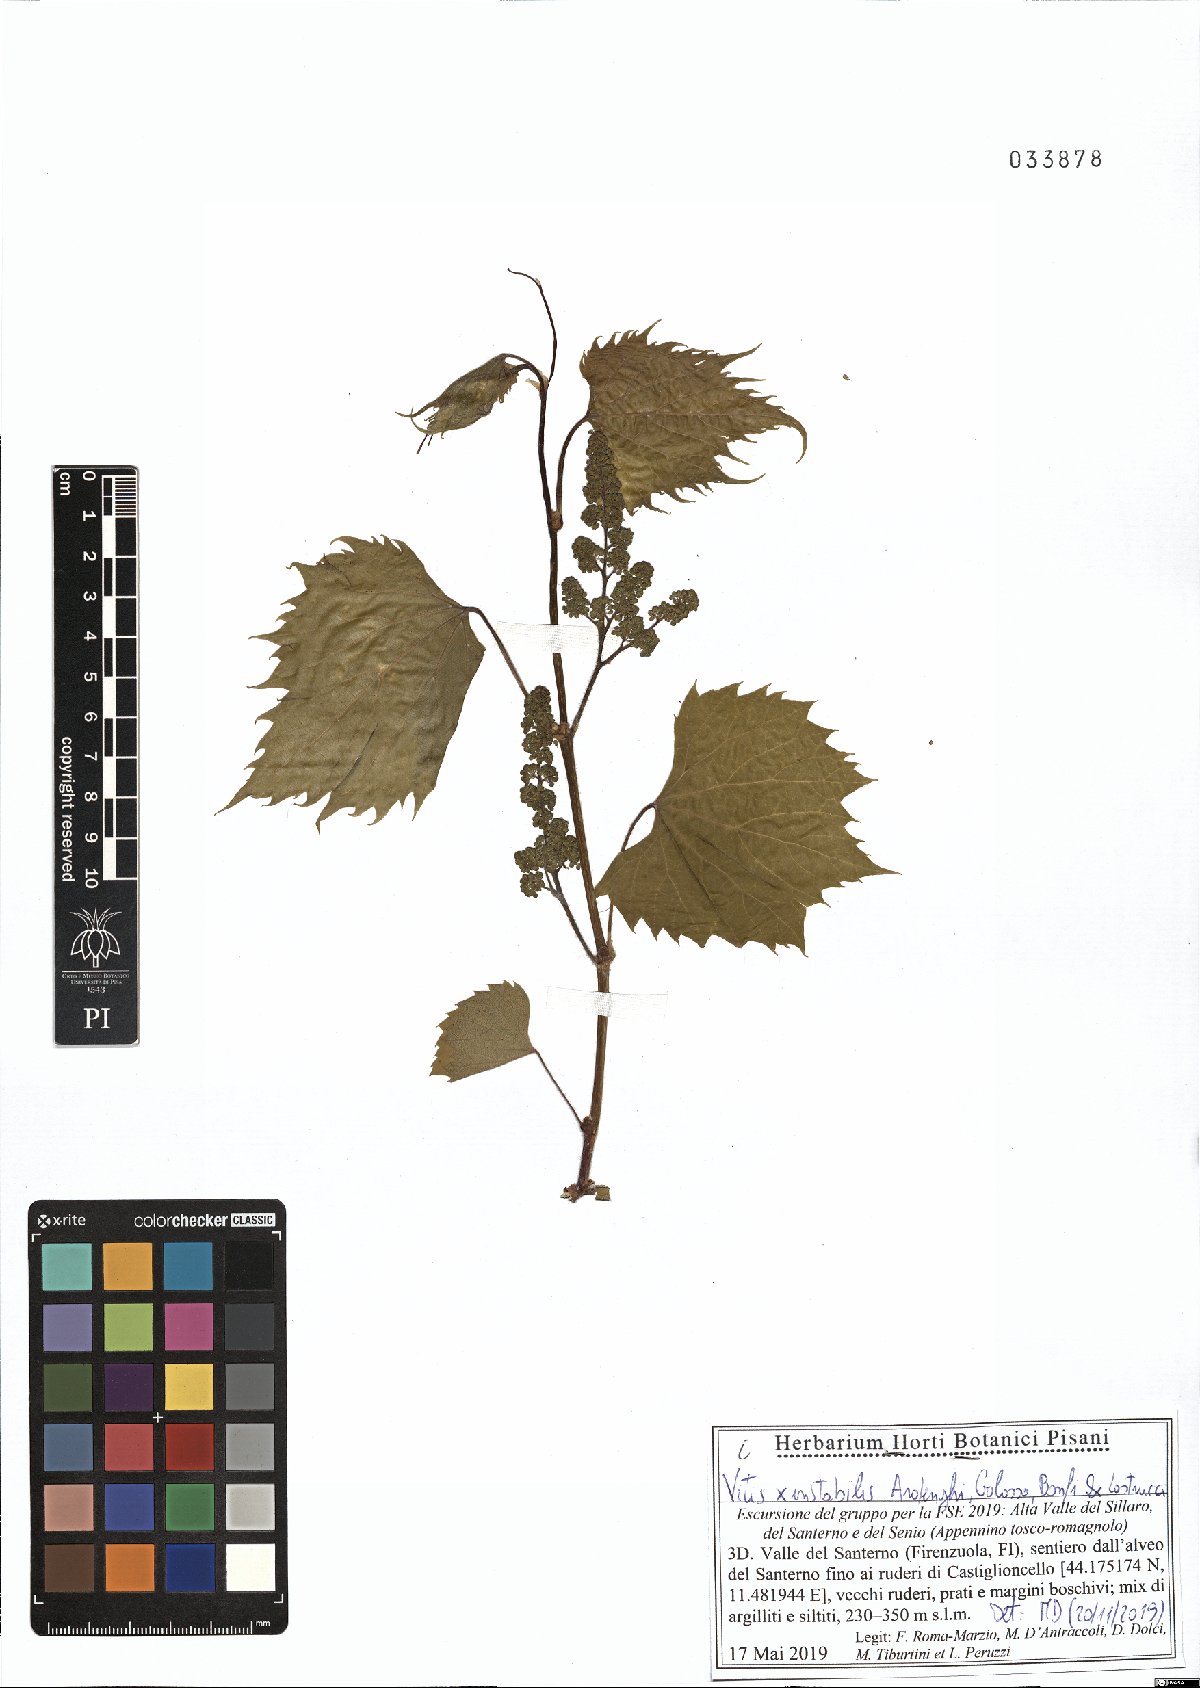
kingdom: Plantae
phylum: Tracheophyta
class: Magnoliopsida
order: Vitales
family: Vitaceae
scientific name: Vitaceae
